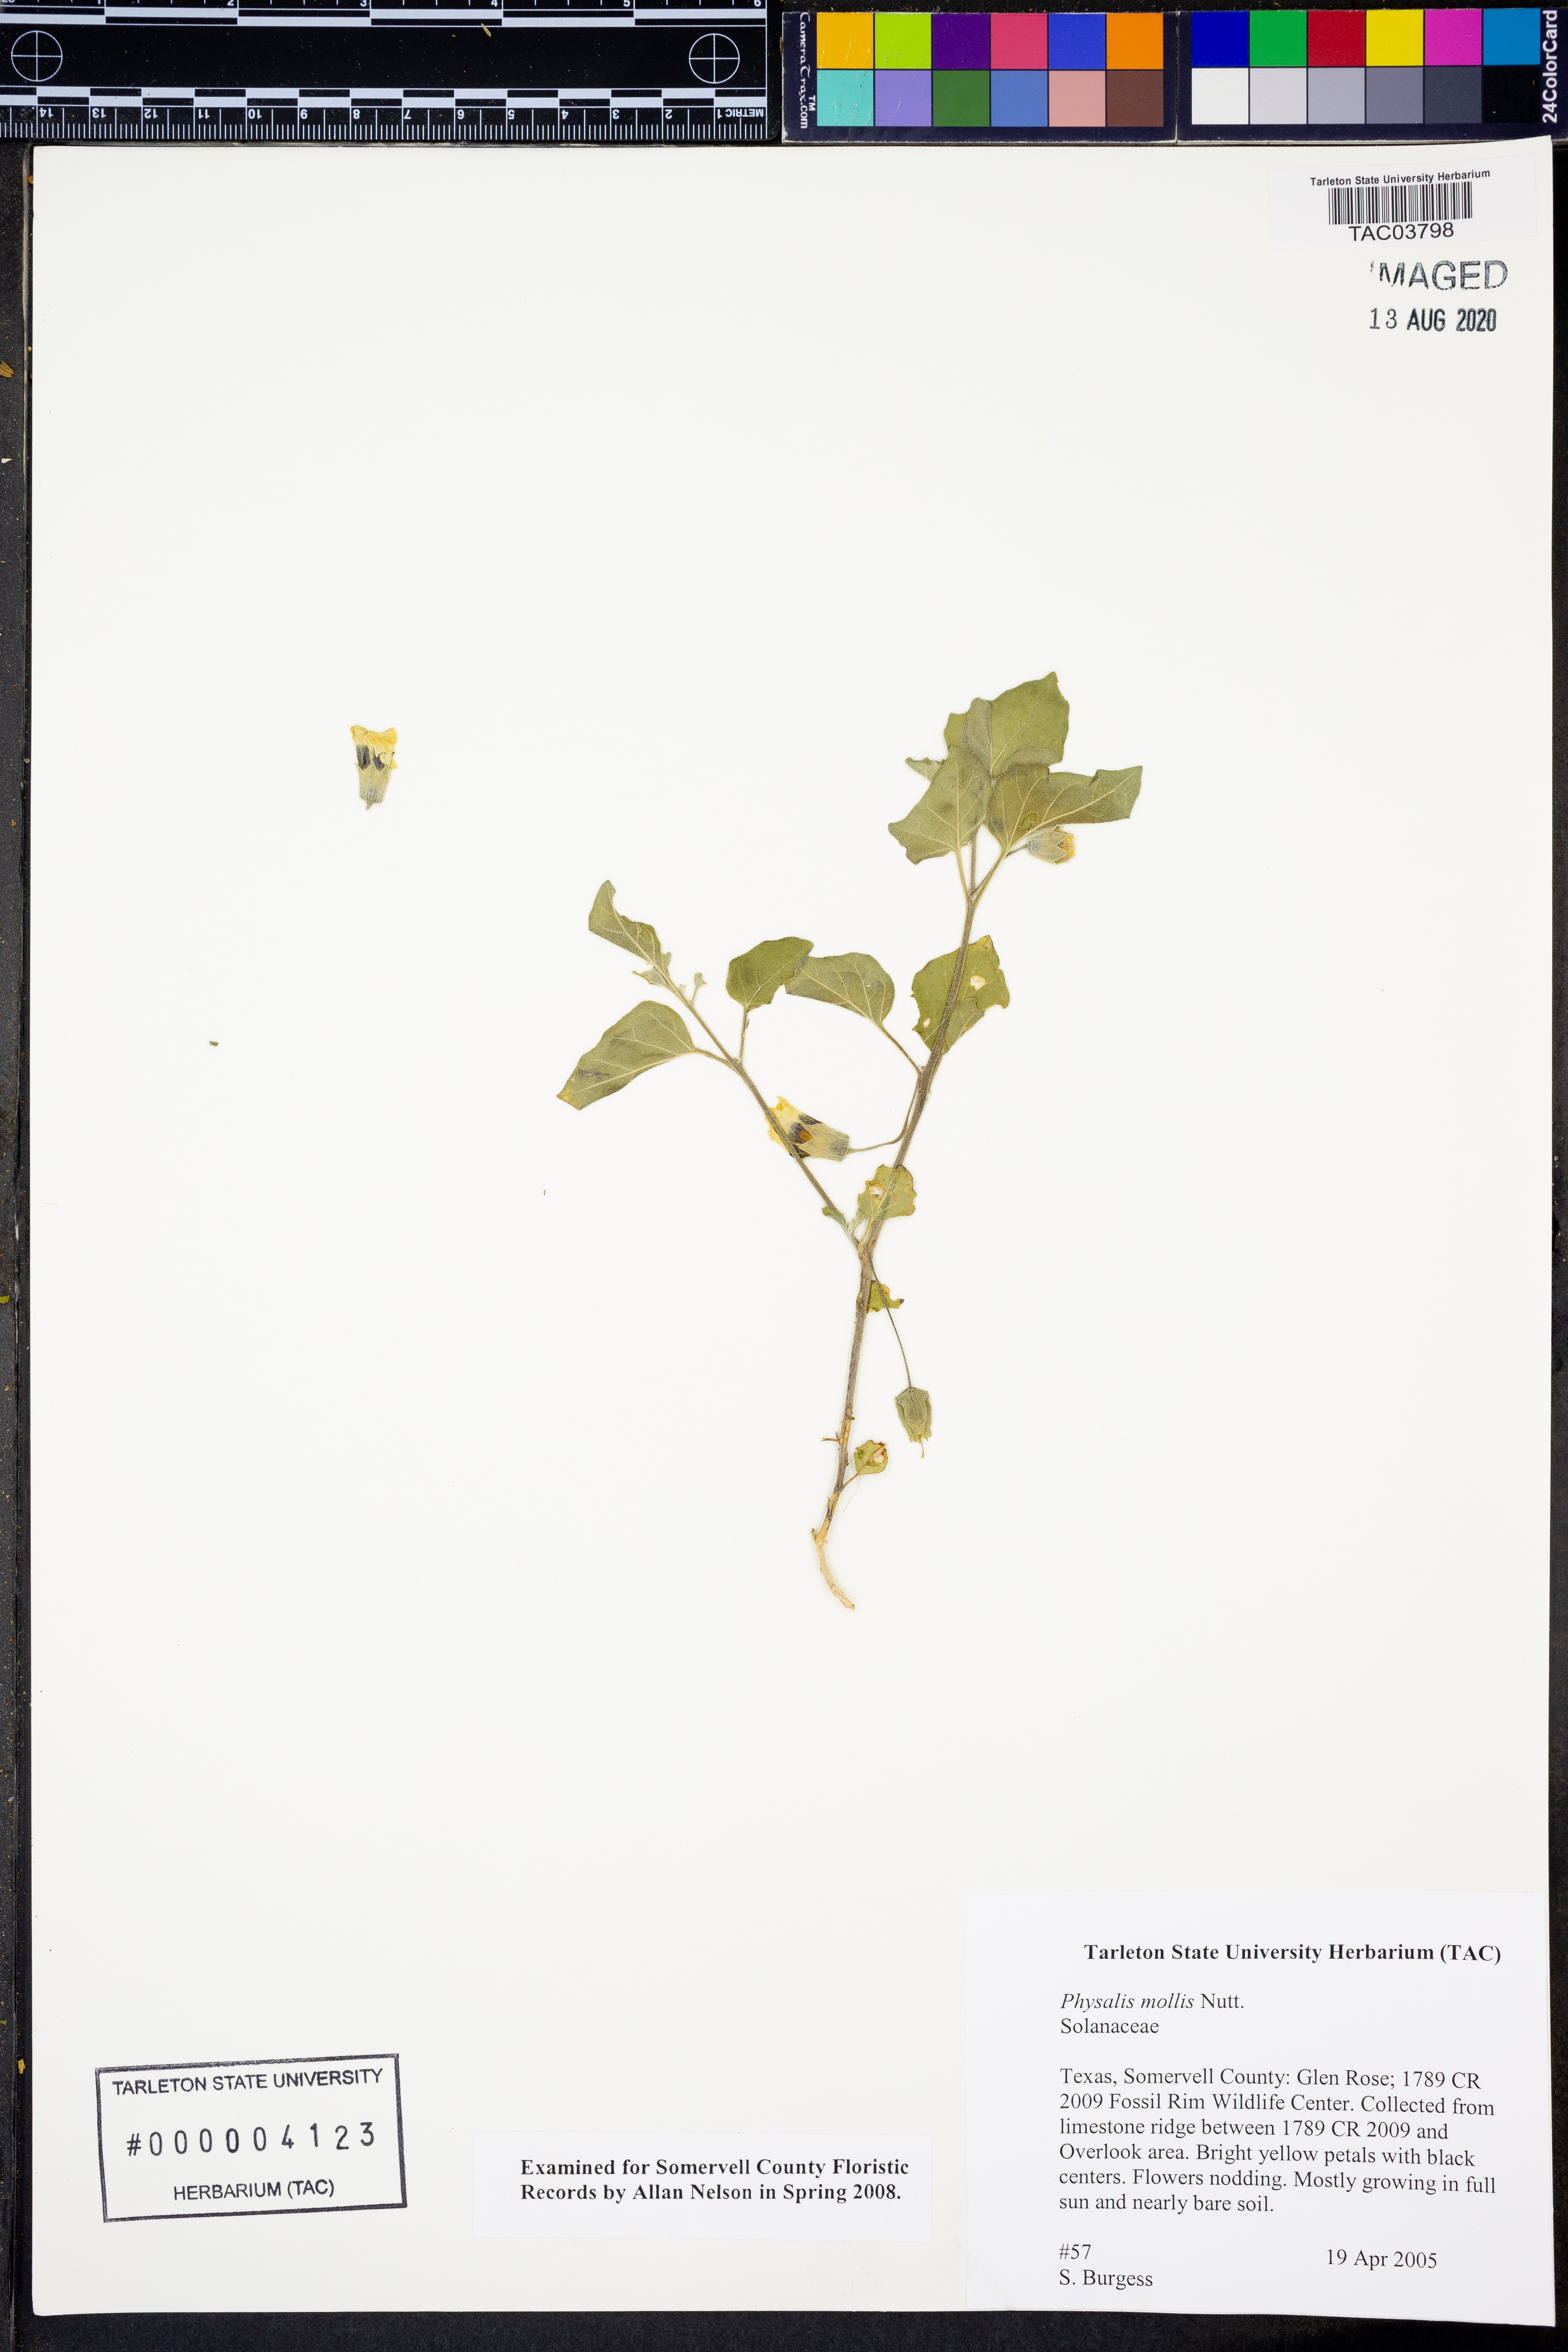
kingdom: Plantae
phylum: Tracheophyta
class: Magnoliopsida
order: Solanales
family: Solanaceae
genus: Physalis
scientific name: Physalis mollis
